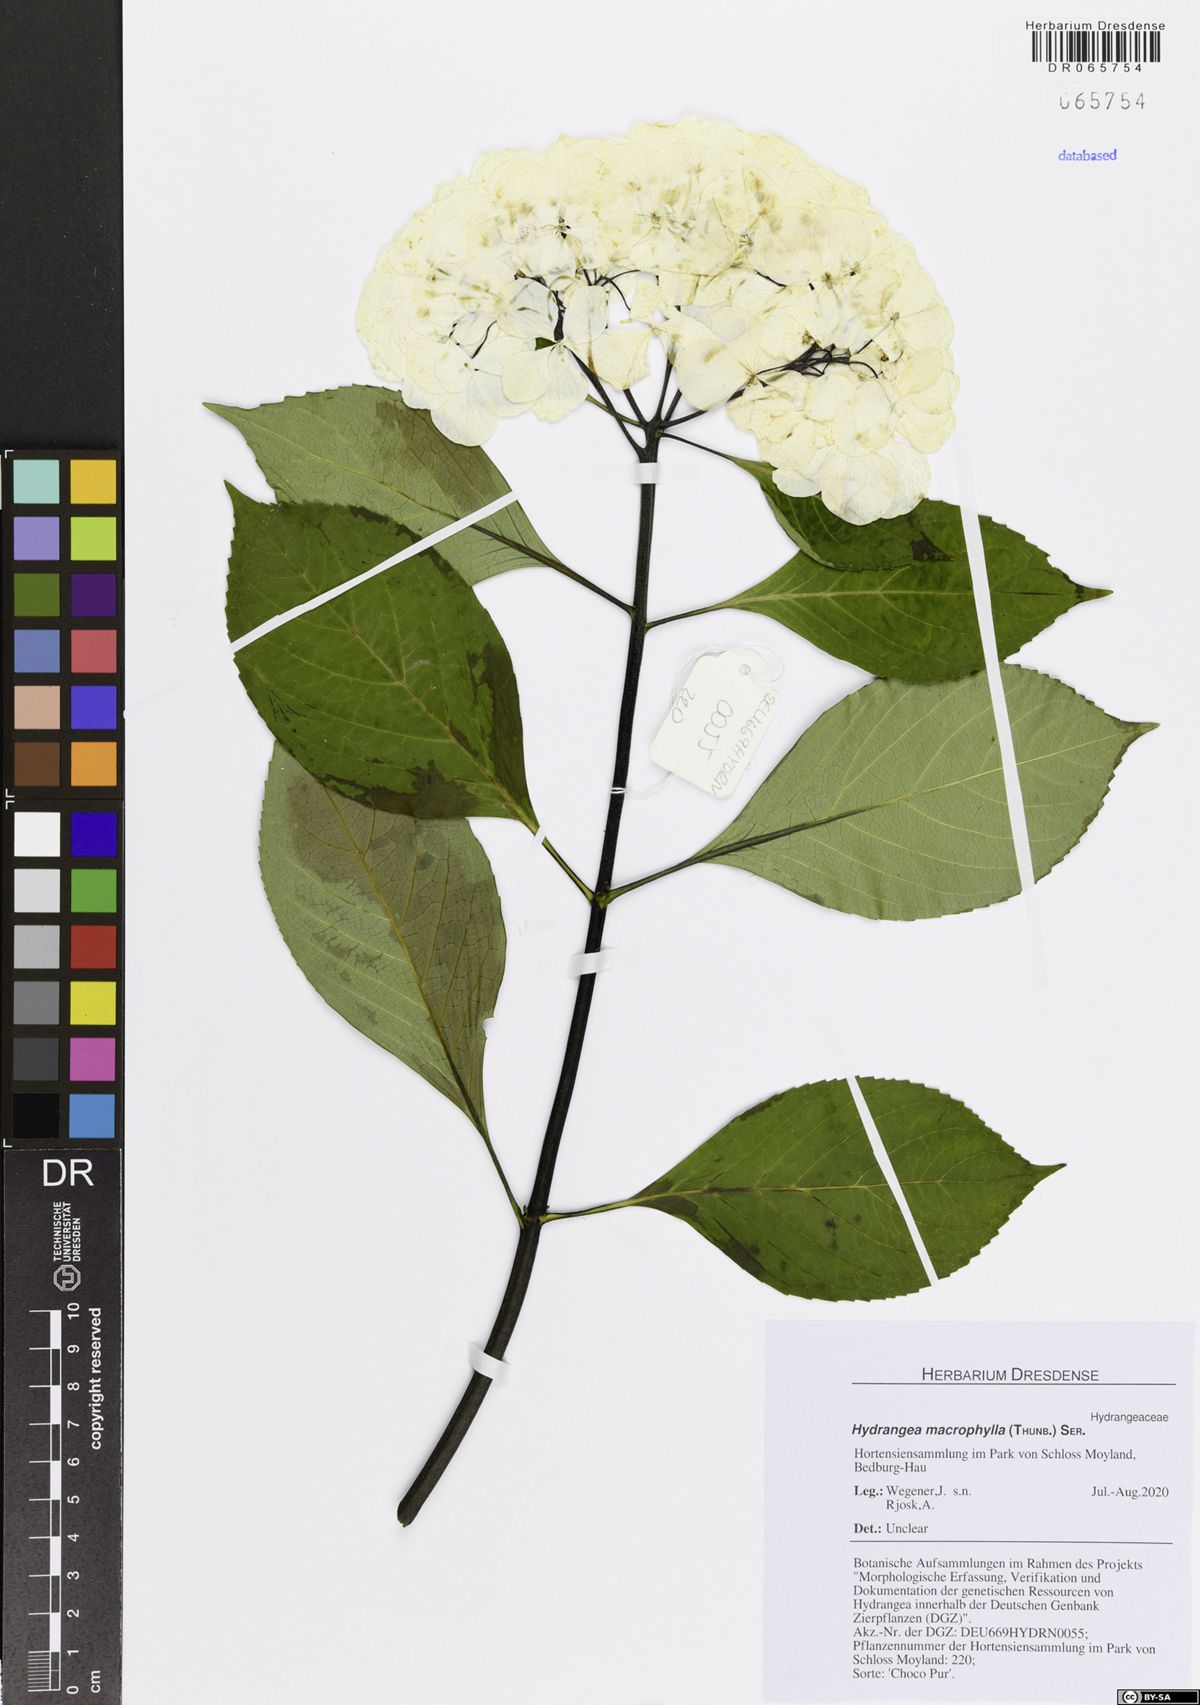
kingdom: Plantae
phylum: Tracheophyta
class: Magnoliopsida
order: Cornales
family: Hydrangeaceae
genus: Hydrangea
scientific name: Hydrangea macrophylla
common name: Hydrangea
